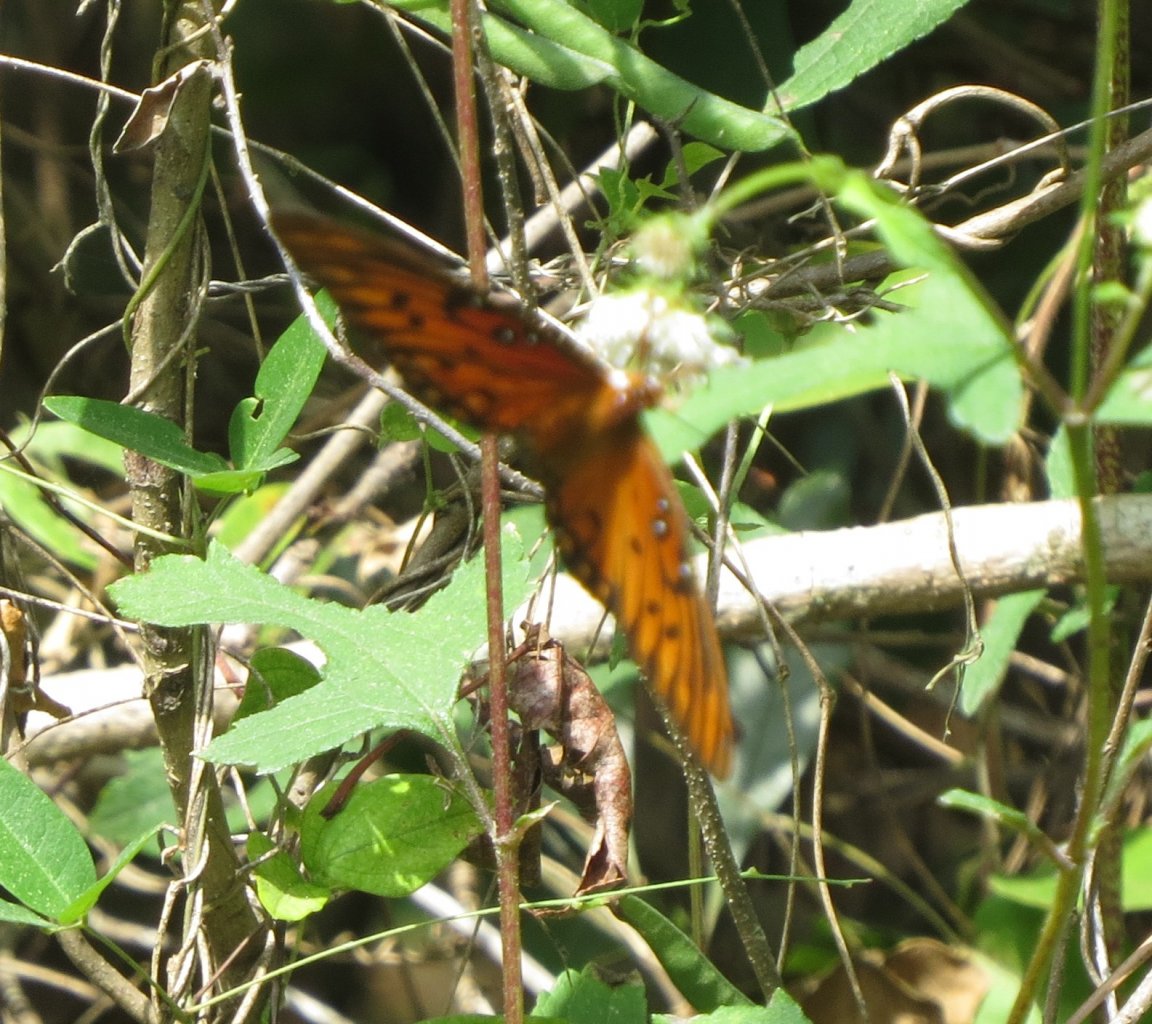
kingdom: Animalia
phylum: Arthropoda
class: Insecta
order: Lepidoptera
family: Nymphalidae
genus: Dione
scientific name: Dione vanillae
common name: Gulf Fritillary
